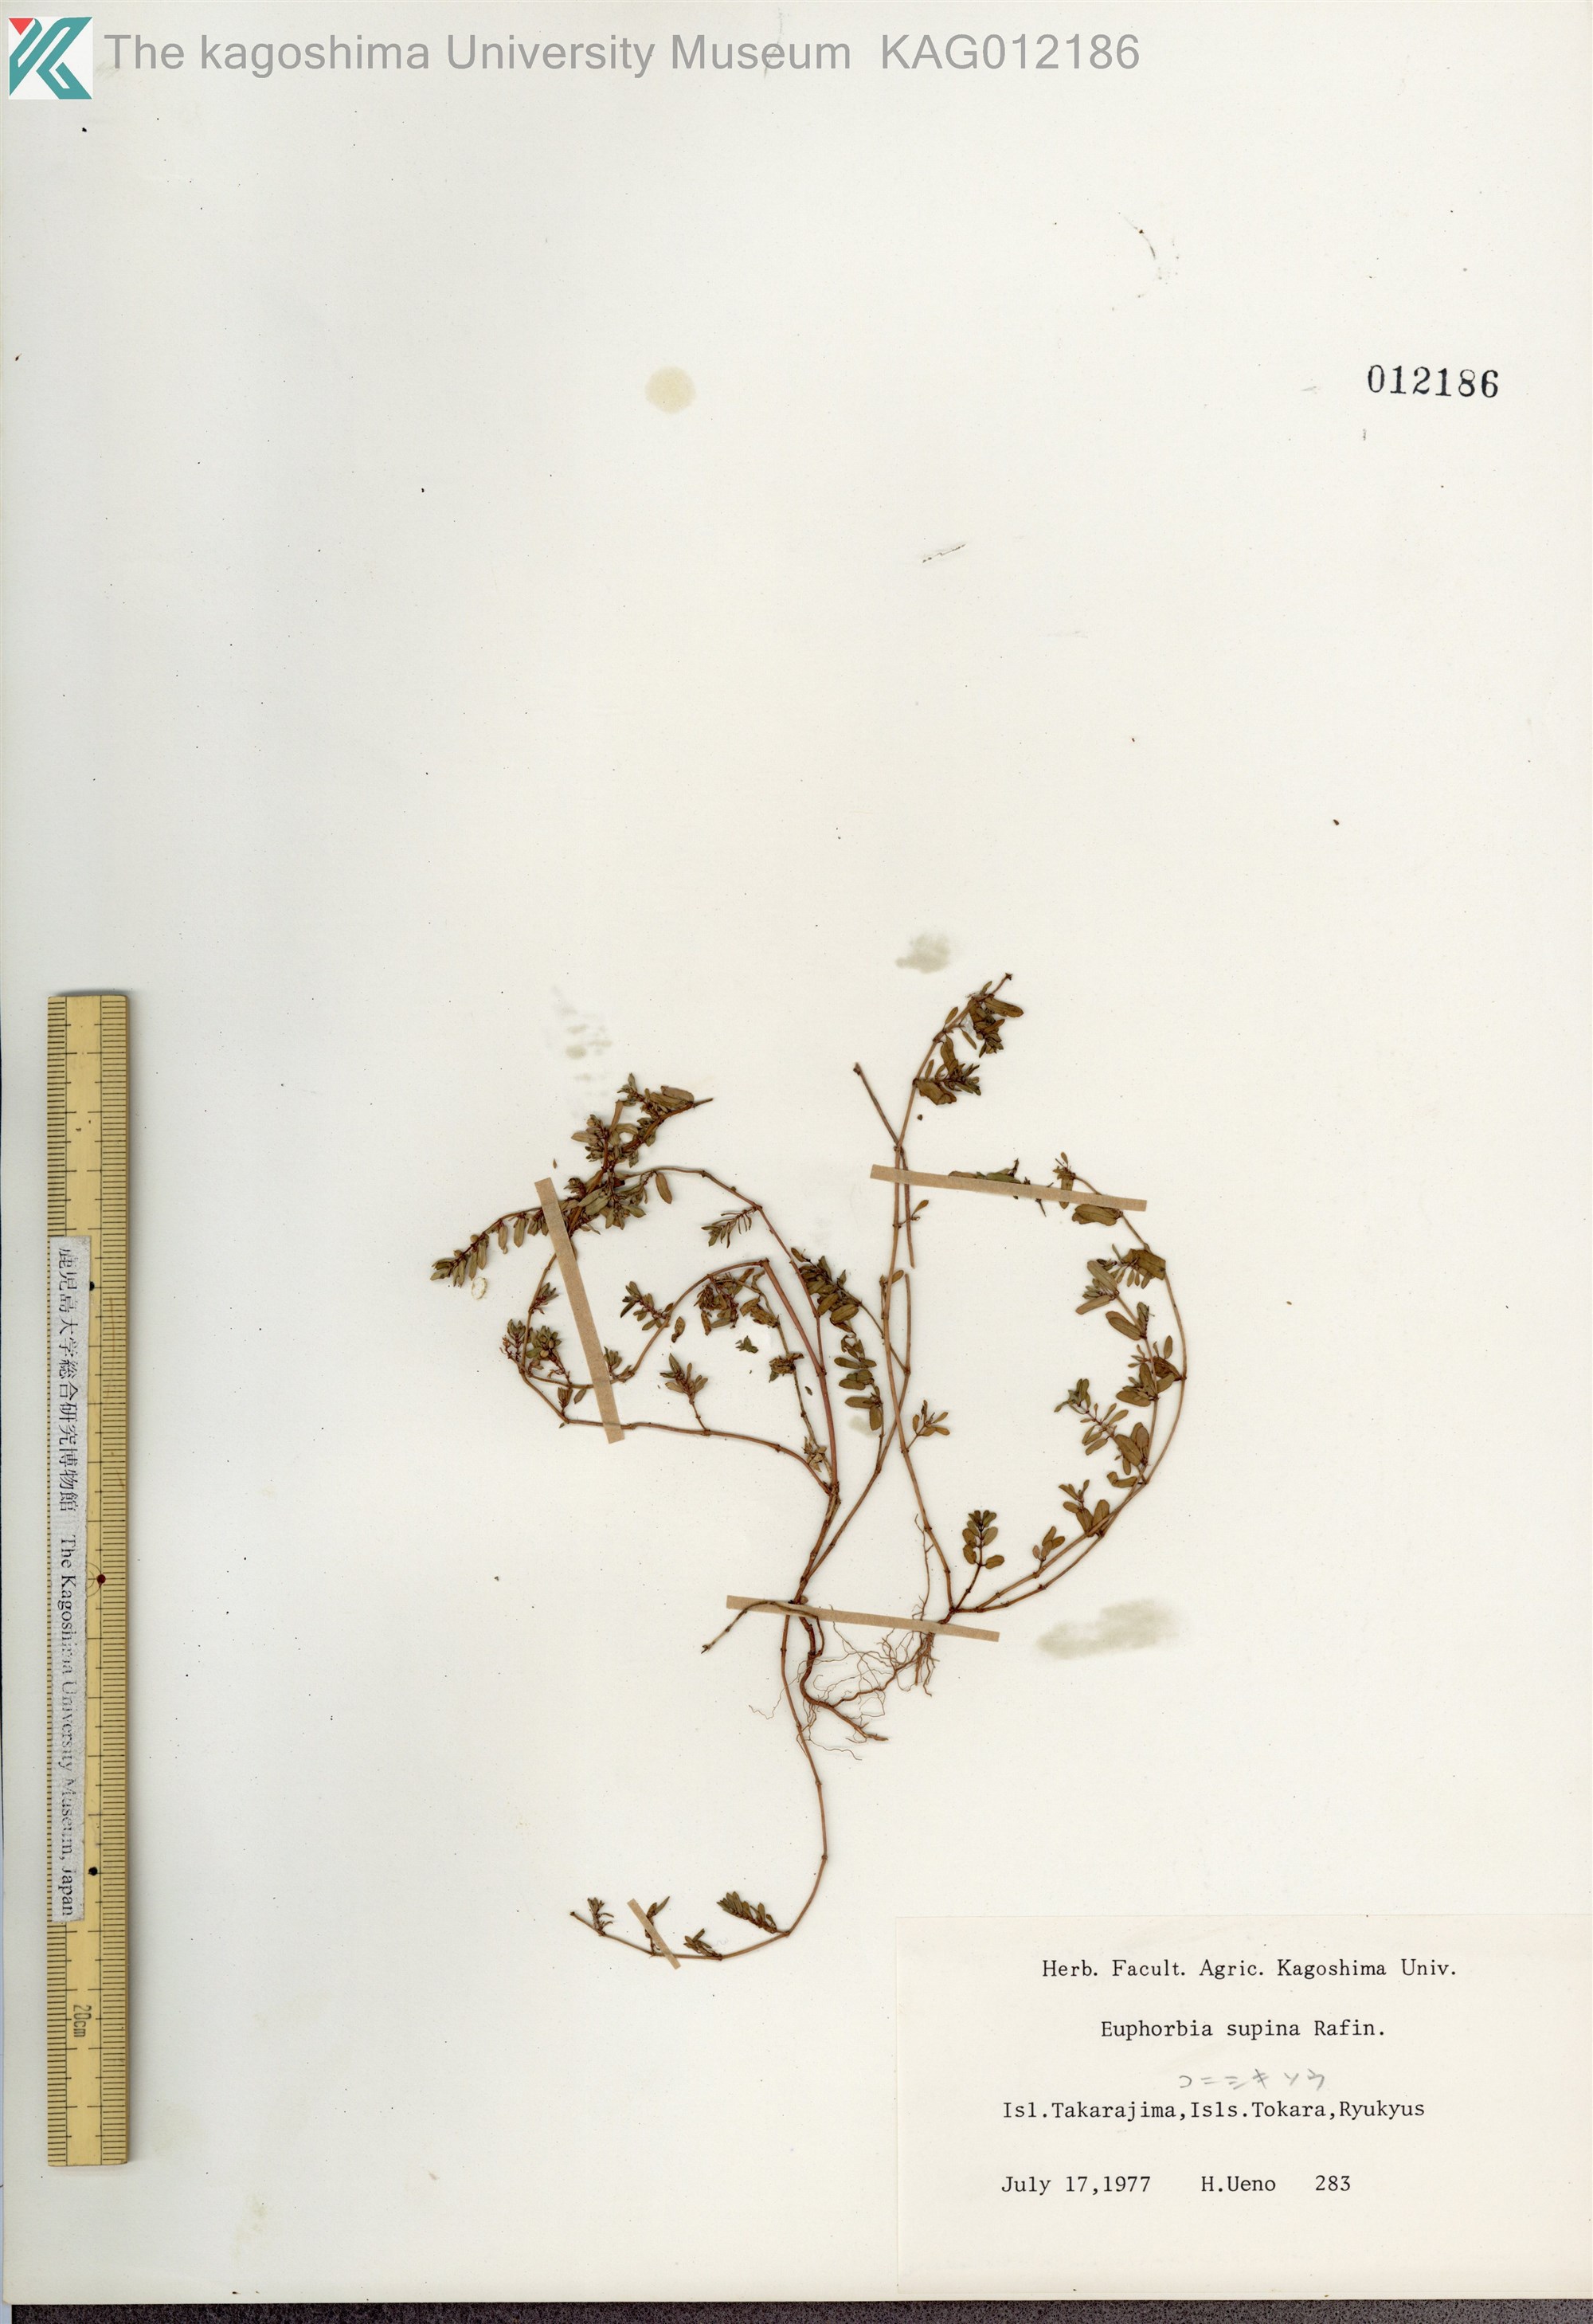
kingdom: Plantae
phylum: Tracheophyta
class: Magnoliopsida
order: Malpighiales
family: Euphorbiaceae
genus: Euphorbia
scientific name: Euphorbia maculata
